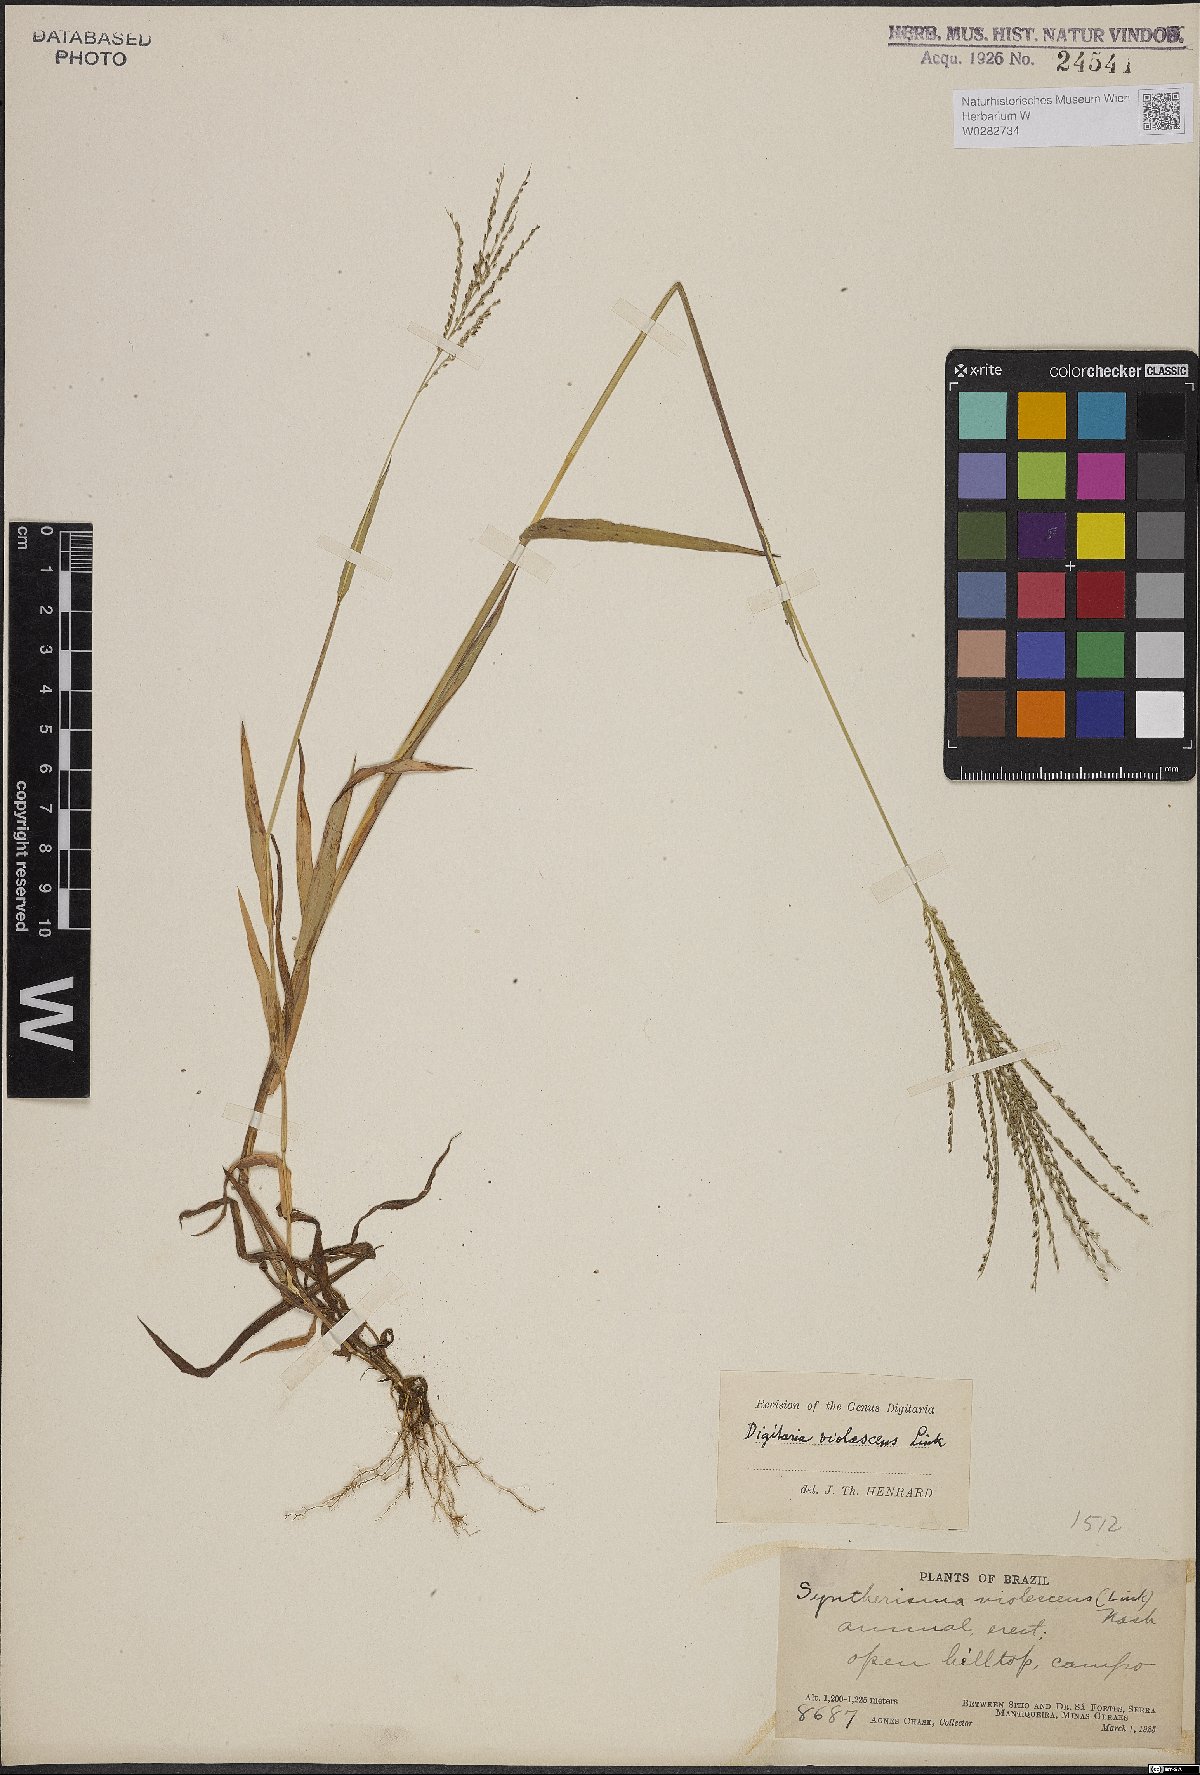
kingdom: Plantae
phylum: Tracheophyta
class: Liliopsida
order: Poales
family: Poaceae
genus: Digitaria
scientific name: Digitaria violascens
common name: Violet crabgrass
